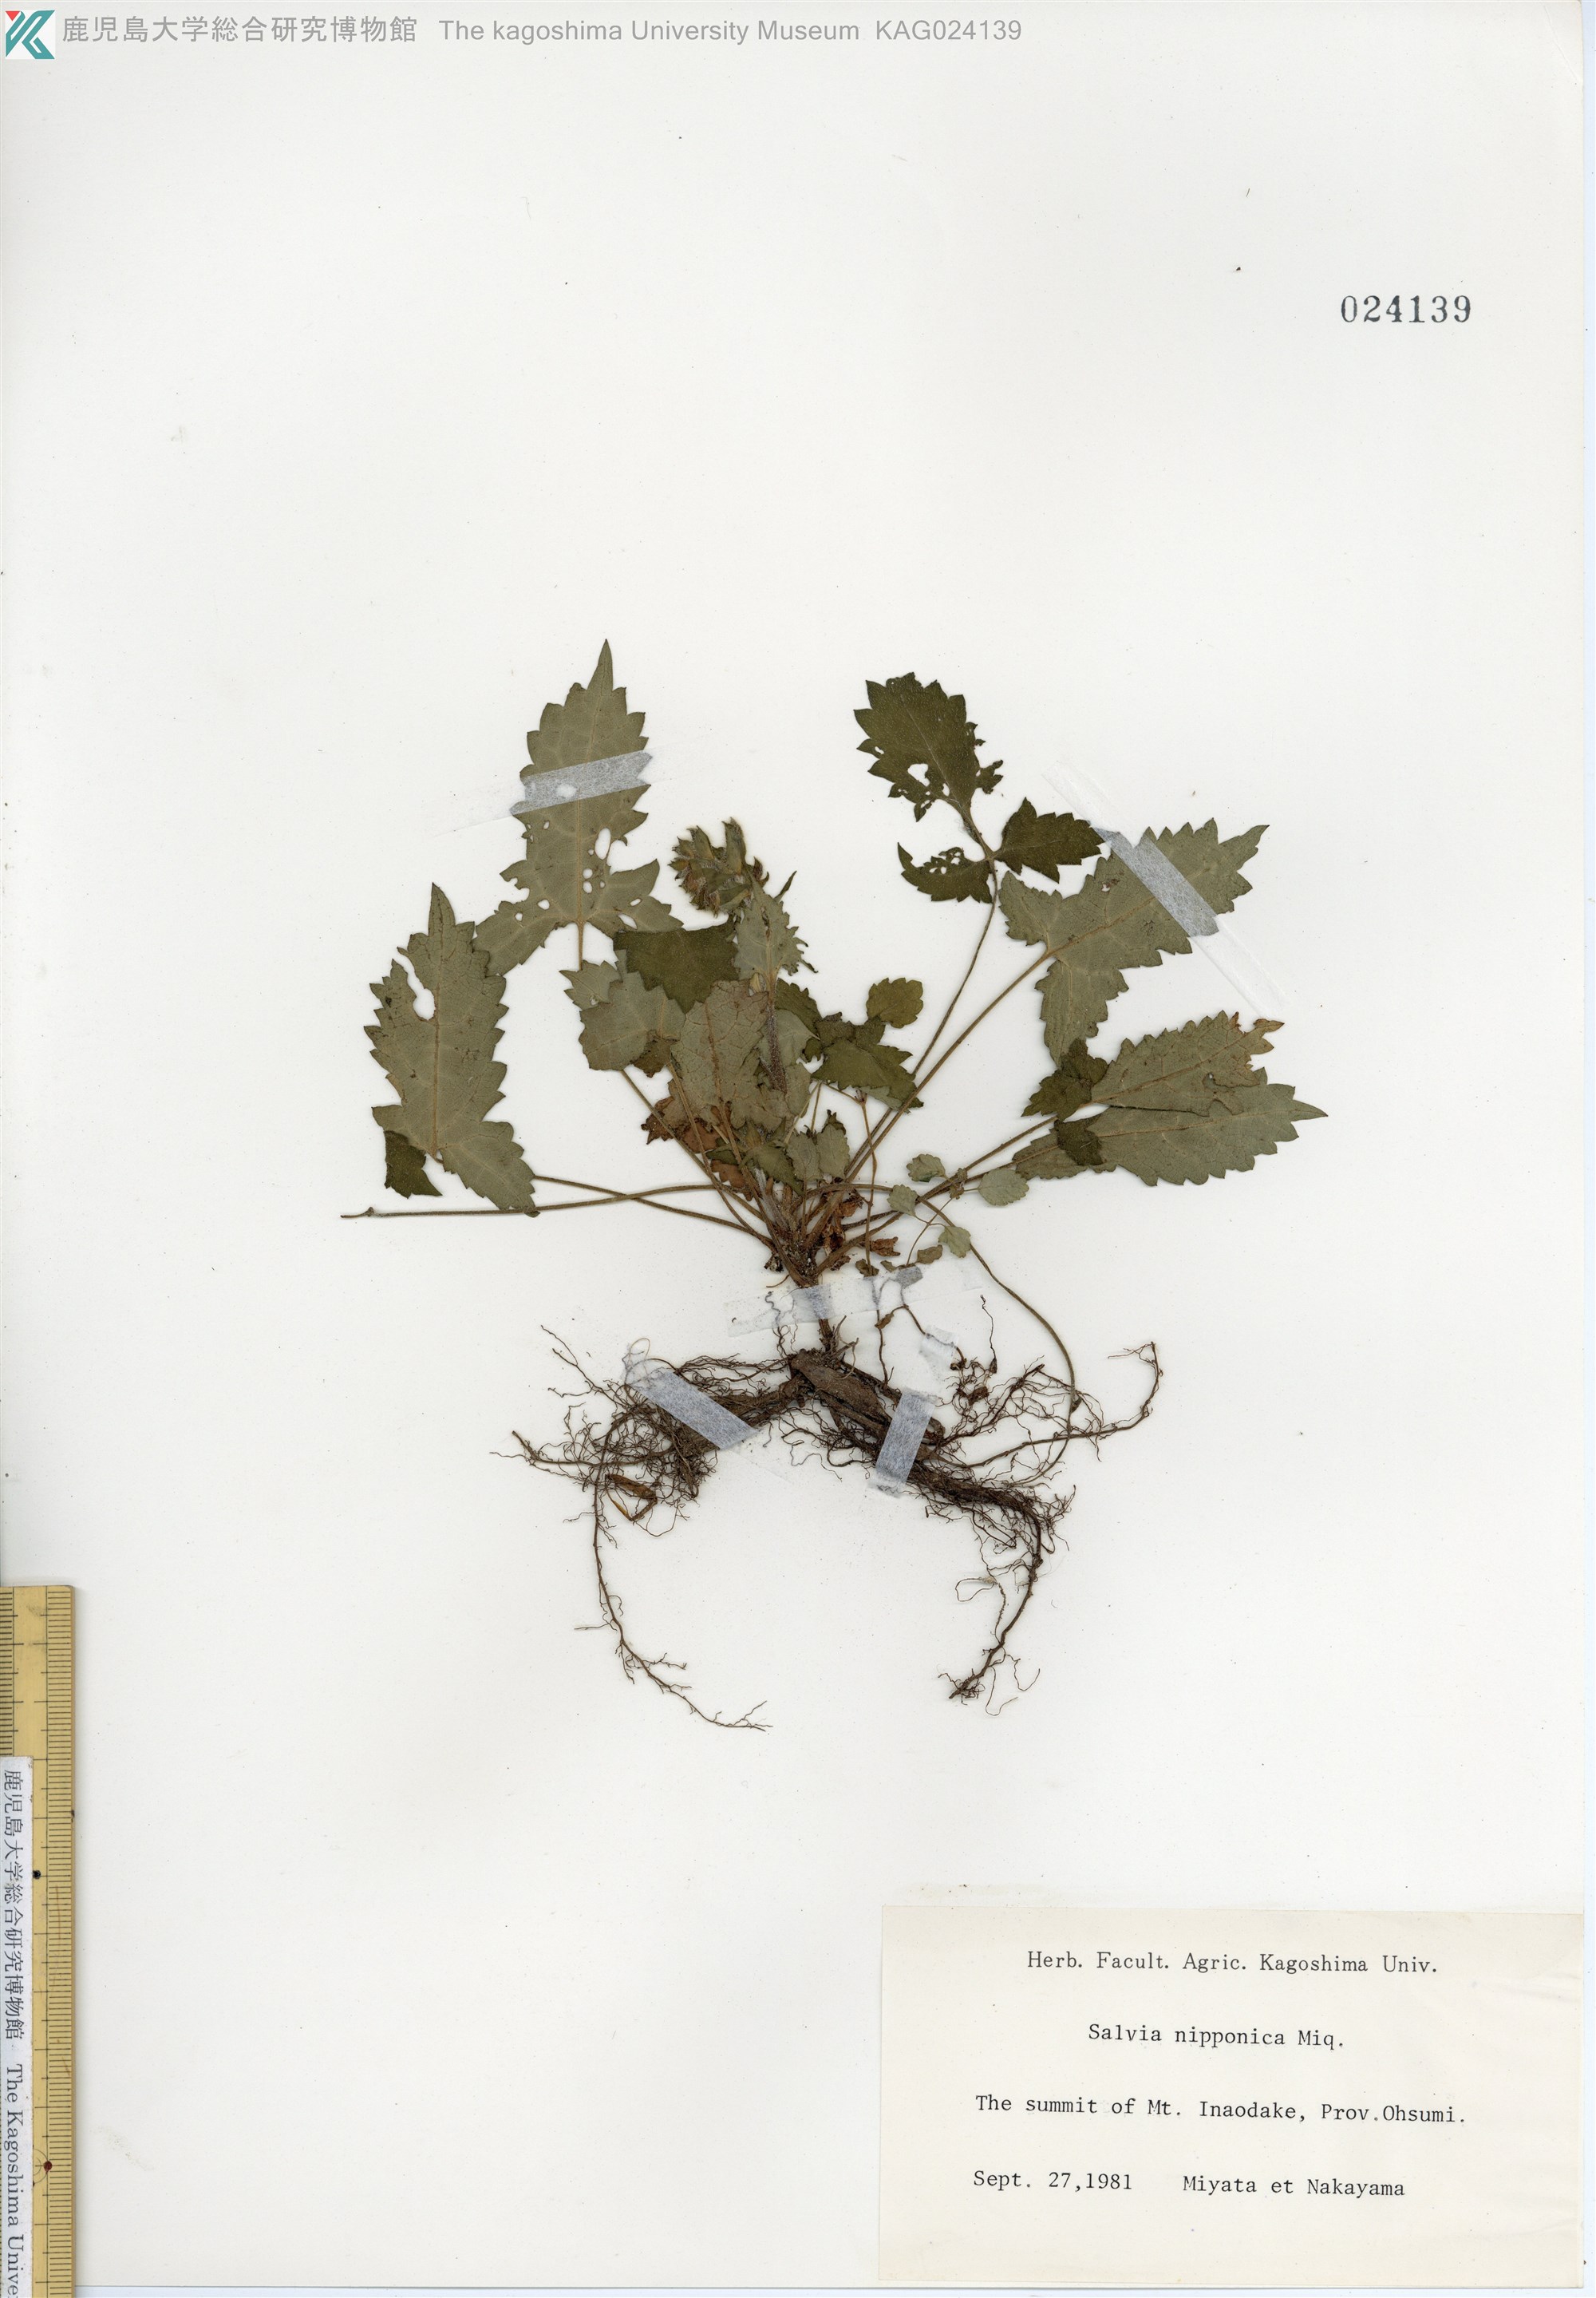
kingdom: Plantae
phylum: Tracheophyta
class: Magnoliopsida
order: Lamiales
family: Lamiaceae
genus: Salvia
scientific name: Salvia nipponica
